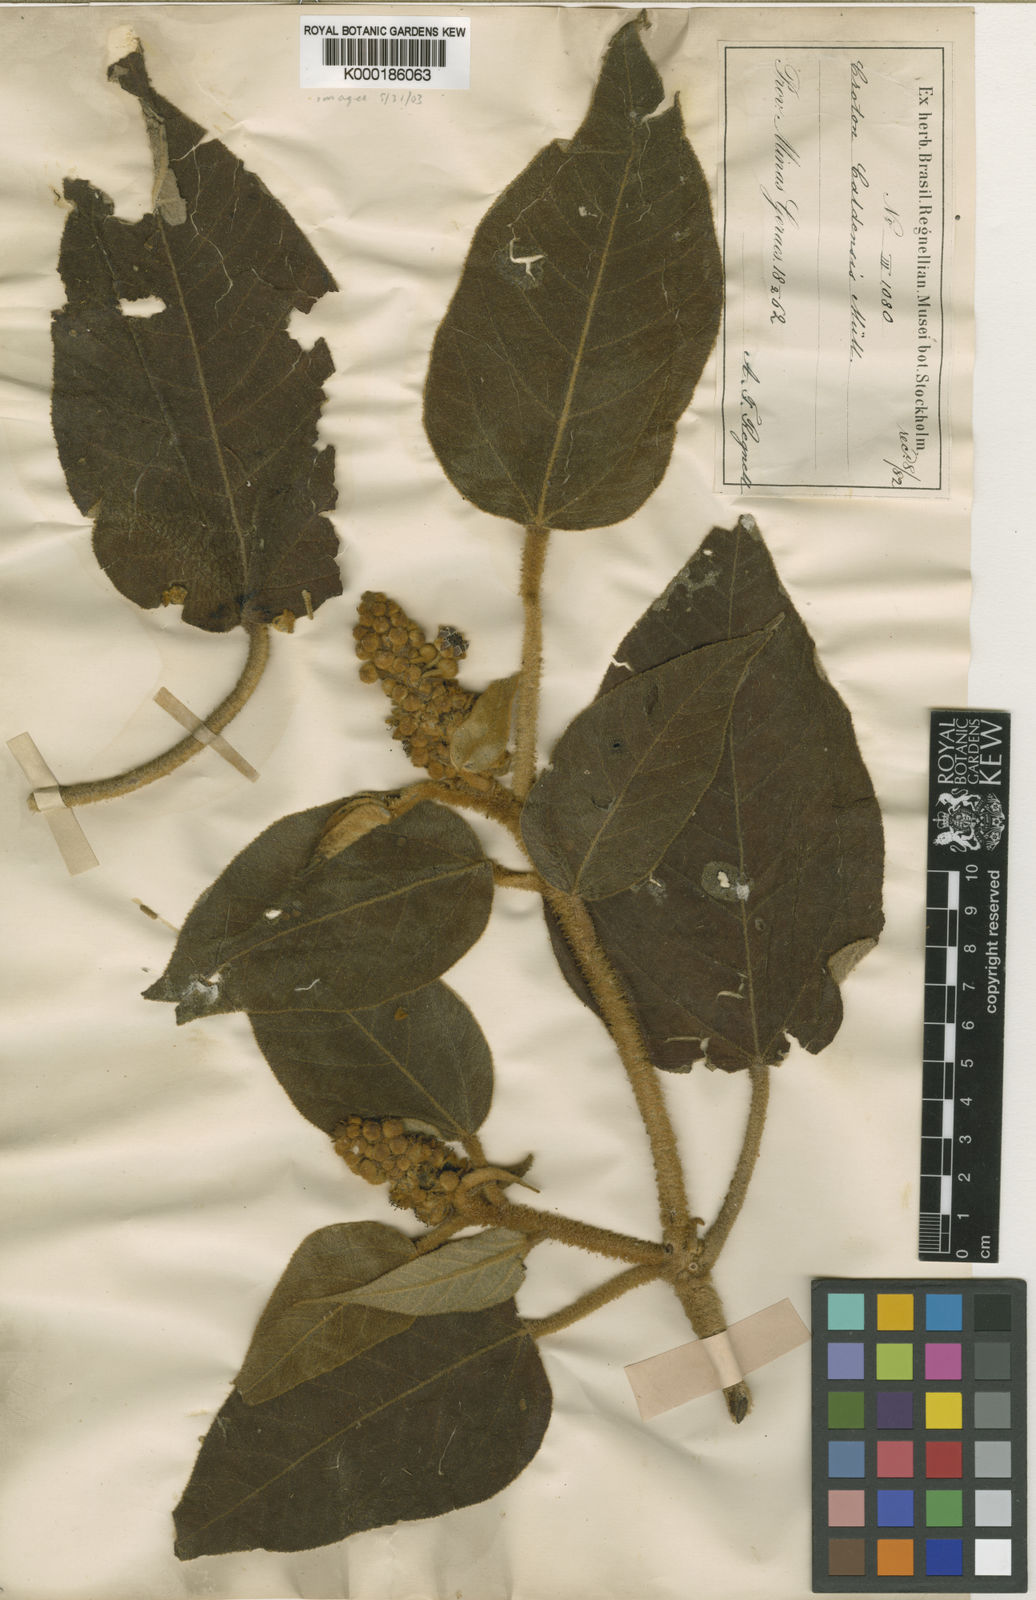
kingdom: Plantae
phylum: Tracheophyta
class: Magnoliopsida
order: Malpighiales
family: Euphorbiaceae
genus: Croton
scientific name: Croton
